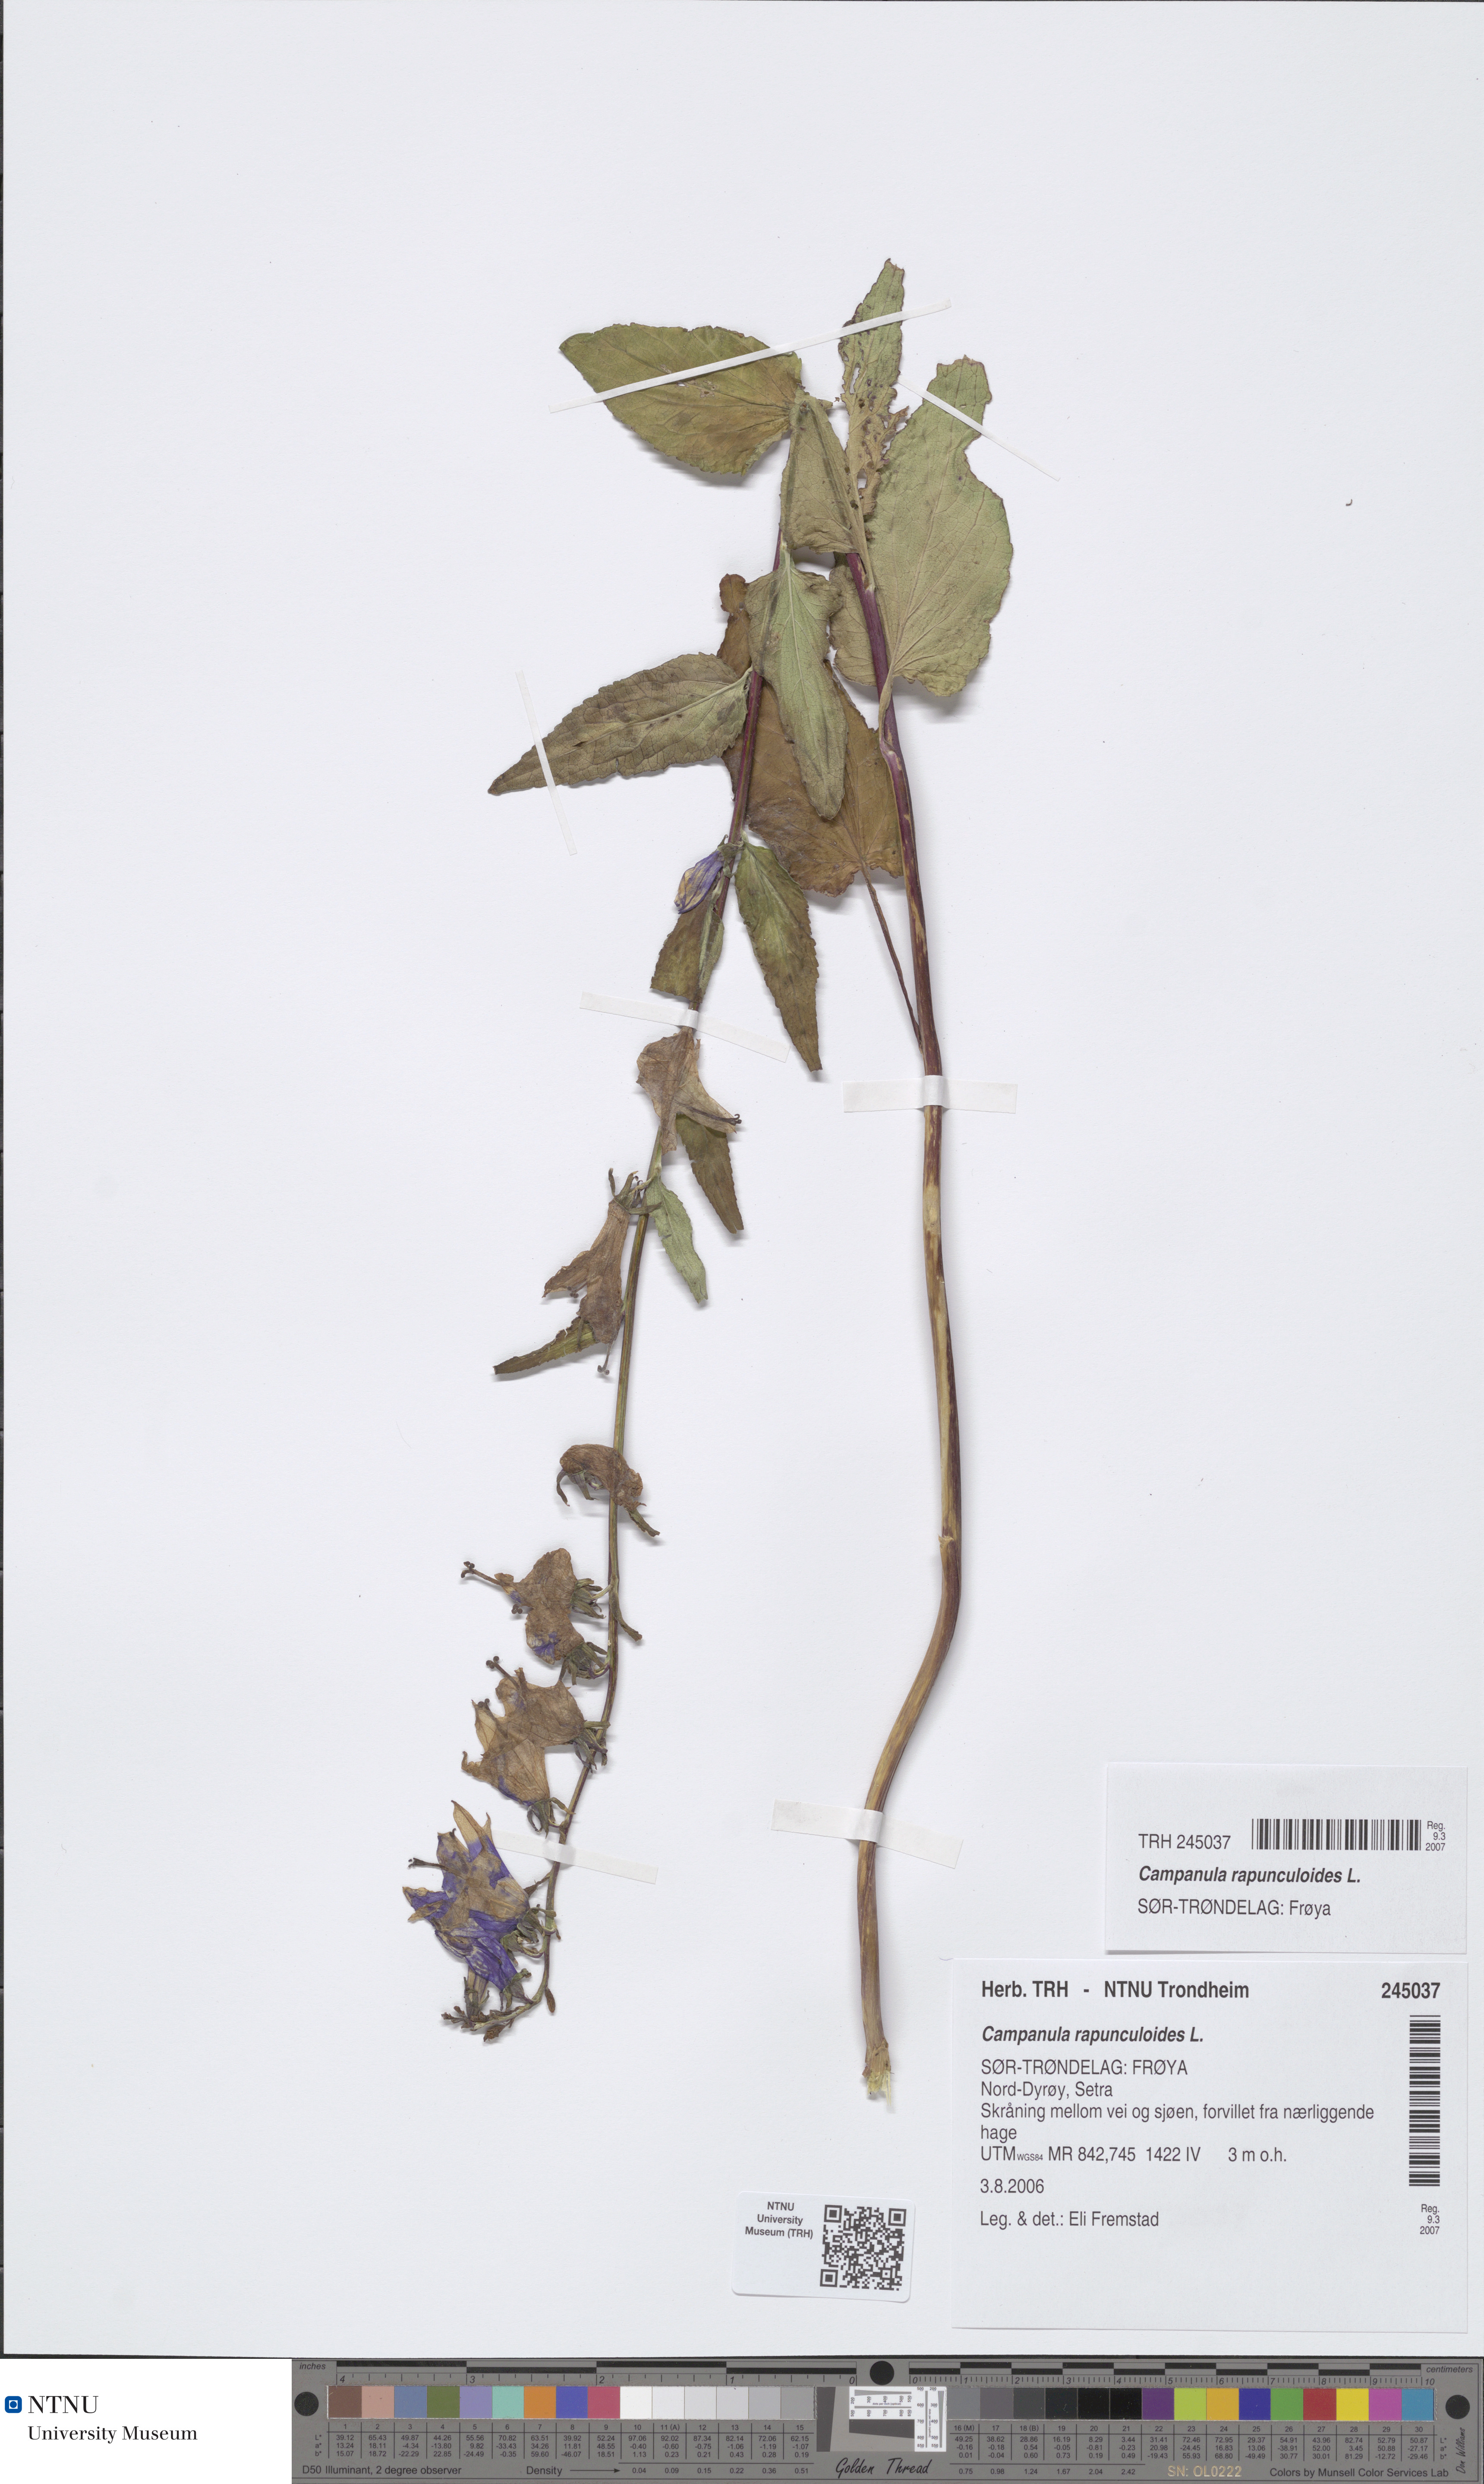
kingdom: Plantae
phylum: Tracheophyta
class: Magnoliopsida
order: Asterales
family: Campanulaceae
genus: Campanula
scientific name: Campanula rapunculoides
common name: Creeping bellflower
